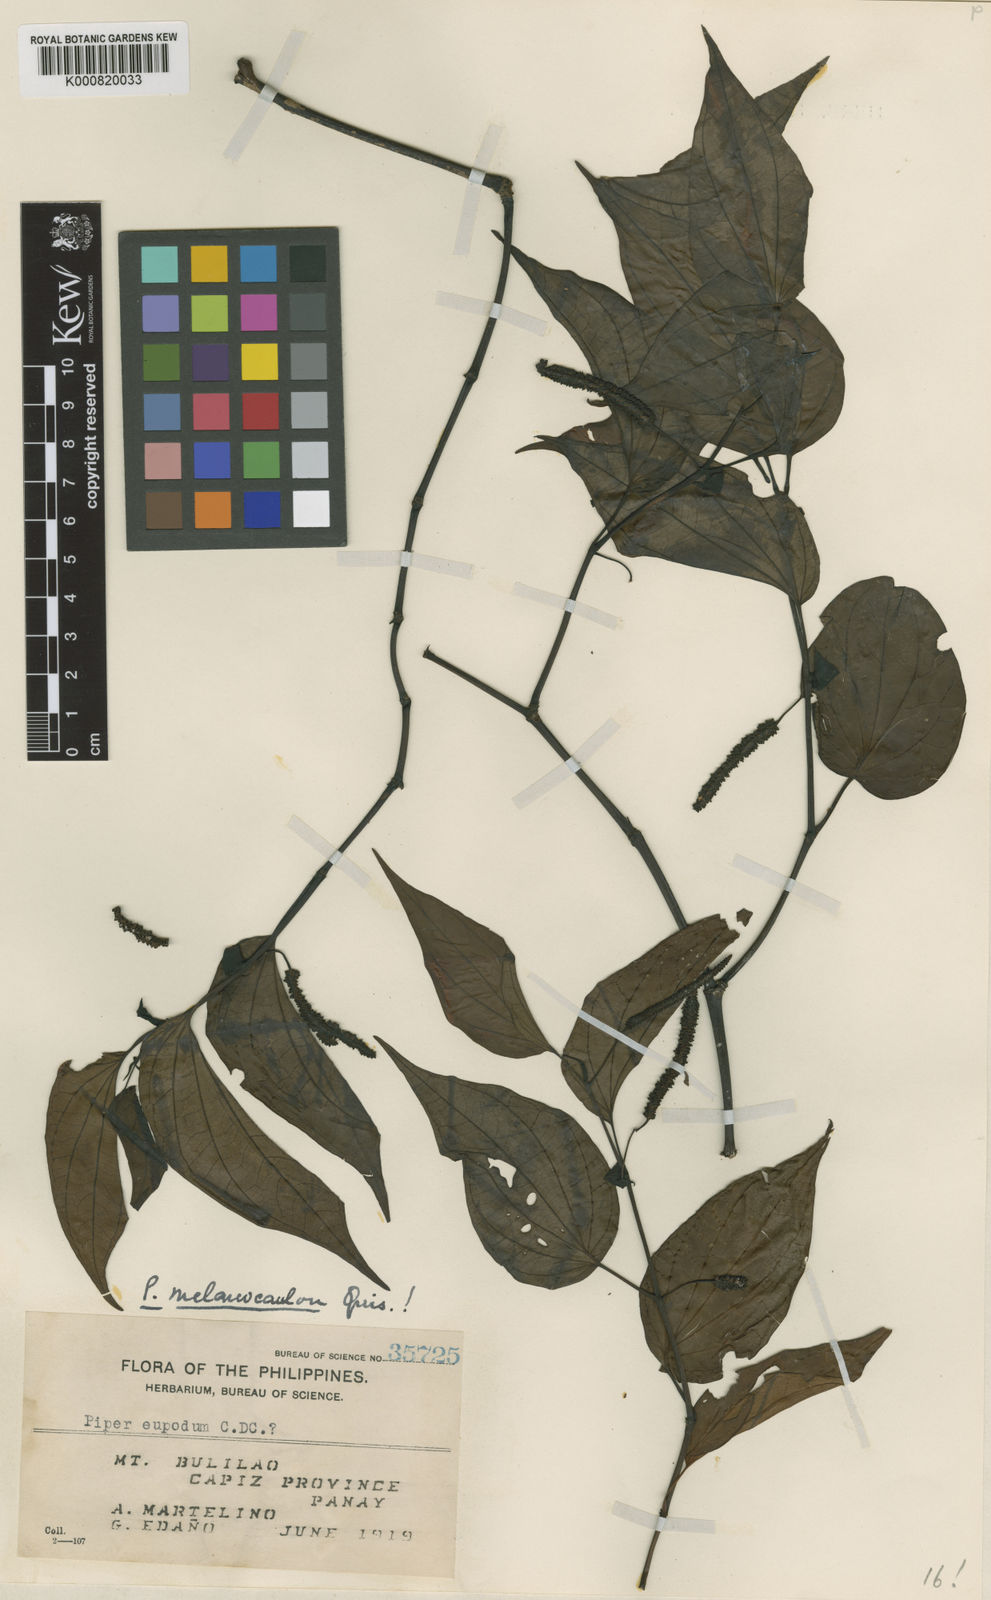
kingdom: Plantae
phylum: Tracheophyta
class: Magnoliopsida
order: Piperales
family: Piperaceae
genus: Piper
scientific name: Piper melanocaulon
